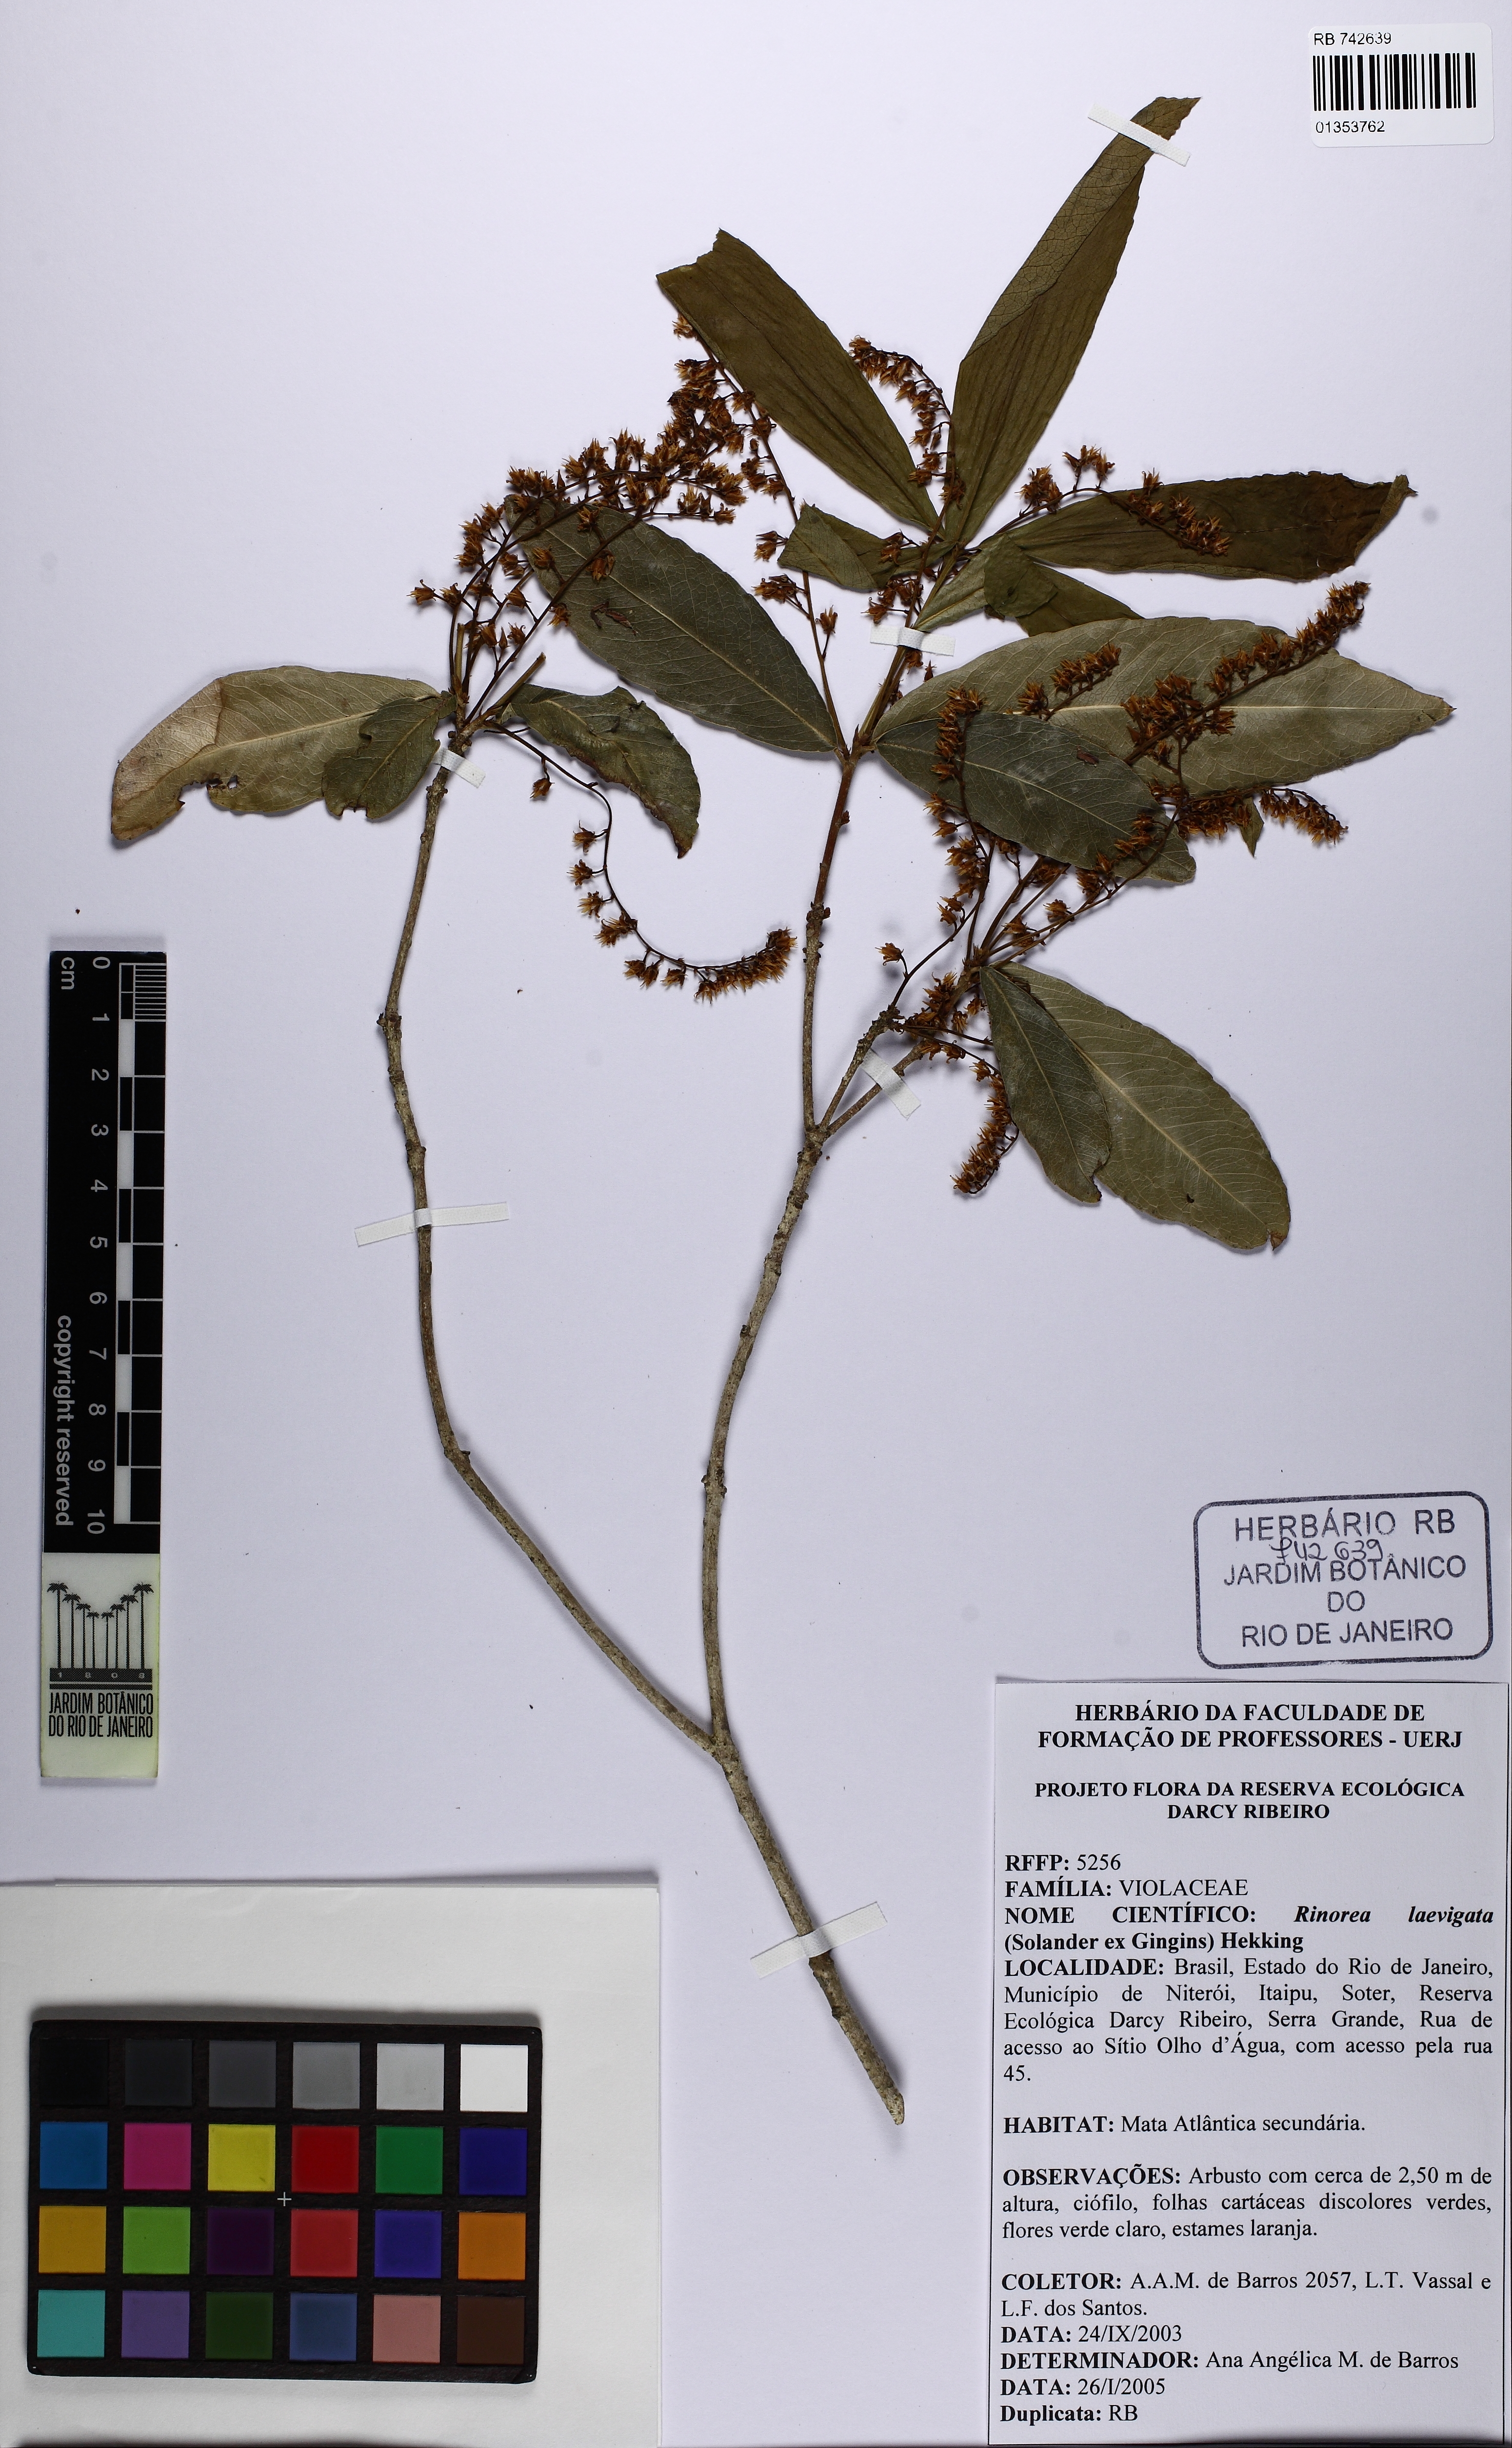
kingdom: Plantae
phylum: Tracheophyta
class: Magnoliopsida
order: Malpighiales
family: Violaceae
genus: Rinorea
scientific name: Rinorea laevigata
